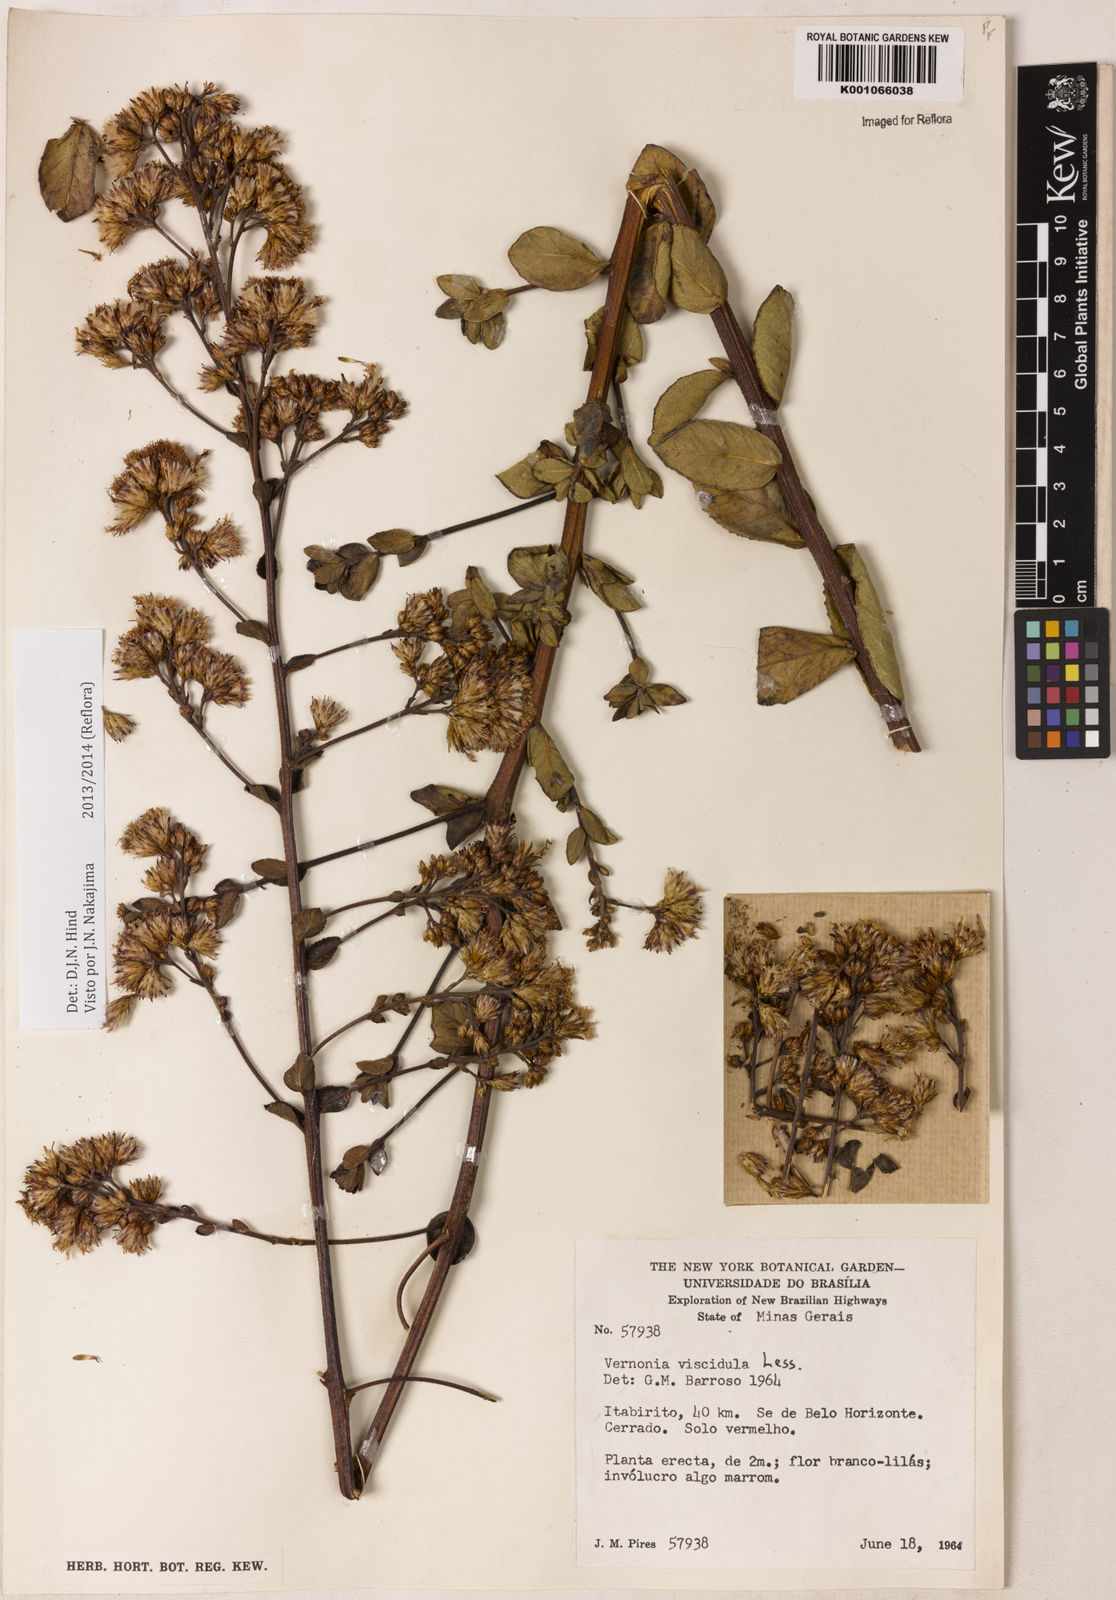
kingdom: Plantae
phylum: Tracheophyta
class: Magnoliopsida
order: Asterales
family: Asteraceae
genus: Vernonanthura
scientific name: Vernonanthura viscidula
